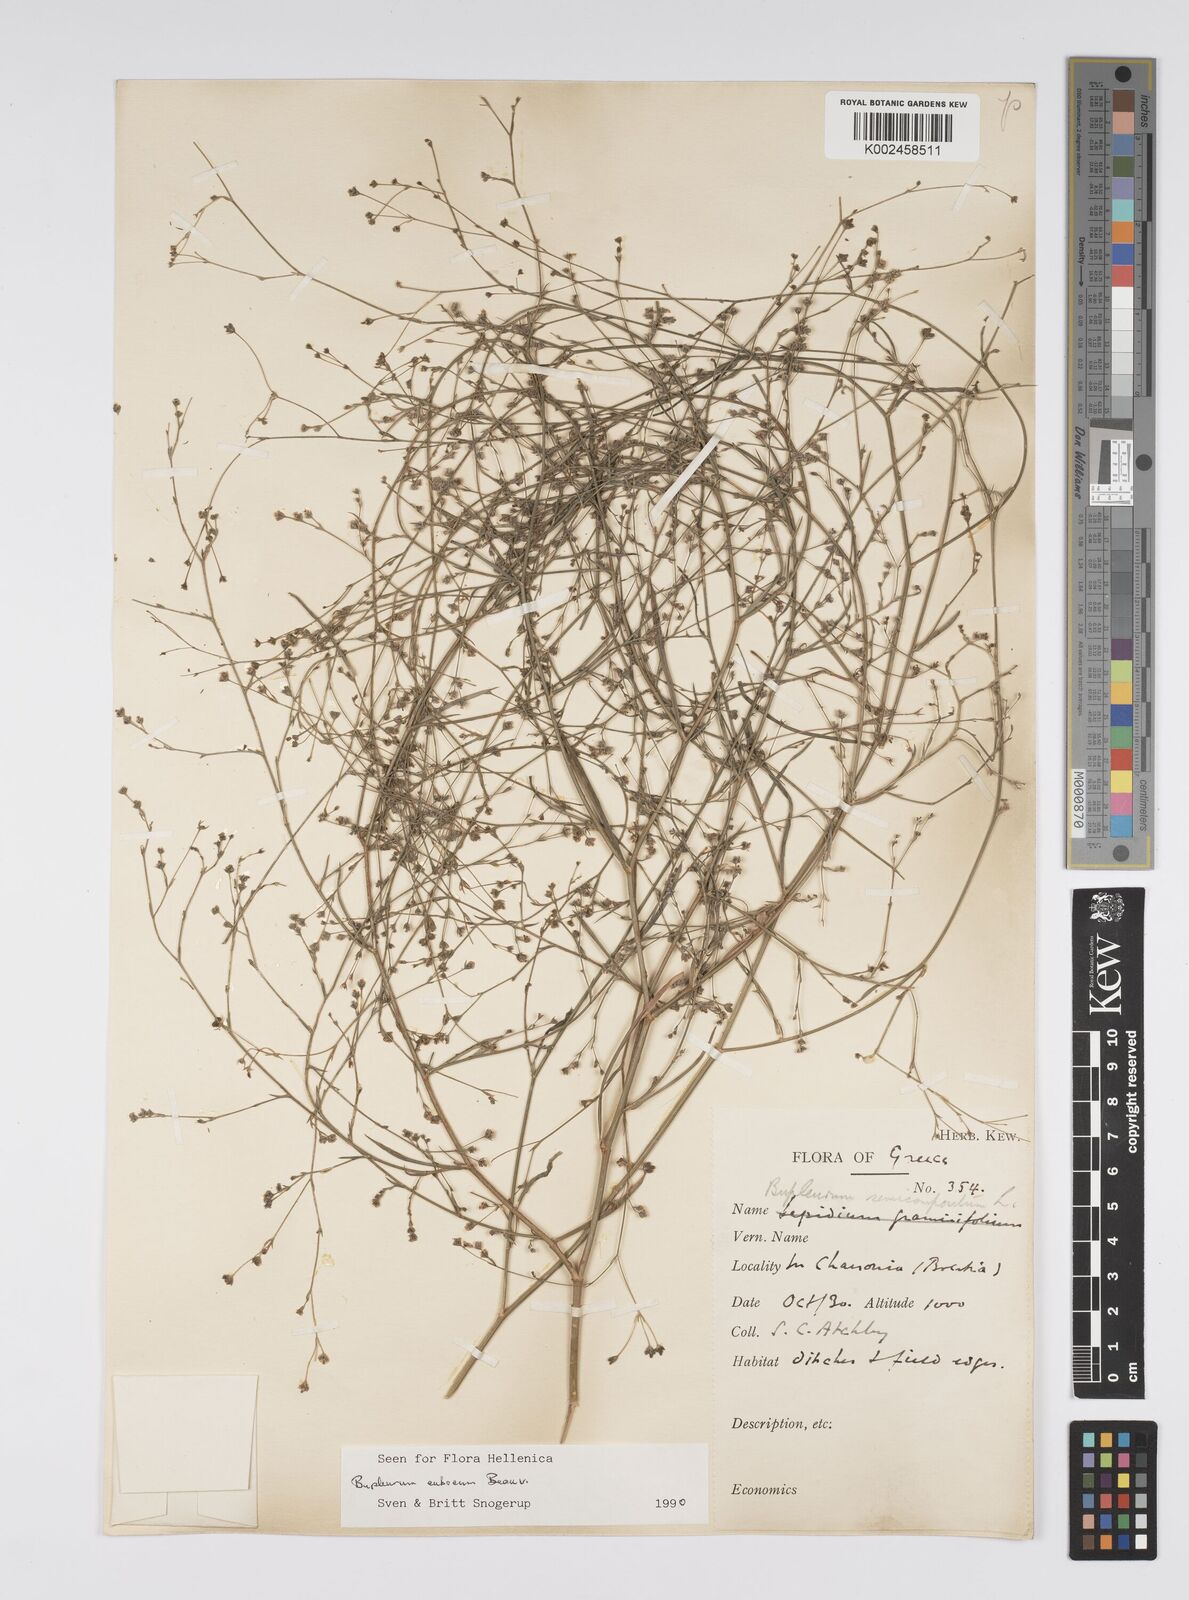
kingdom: Plantae
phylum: Tracheophyta
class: Magnoliopsida
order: Apiales
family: Apiaceae
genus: Bupleurum
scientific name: Bupleurum tenuissimum
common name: Slender hare's-ear
